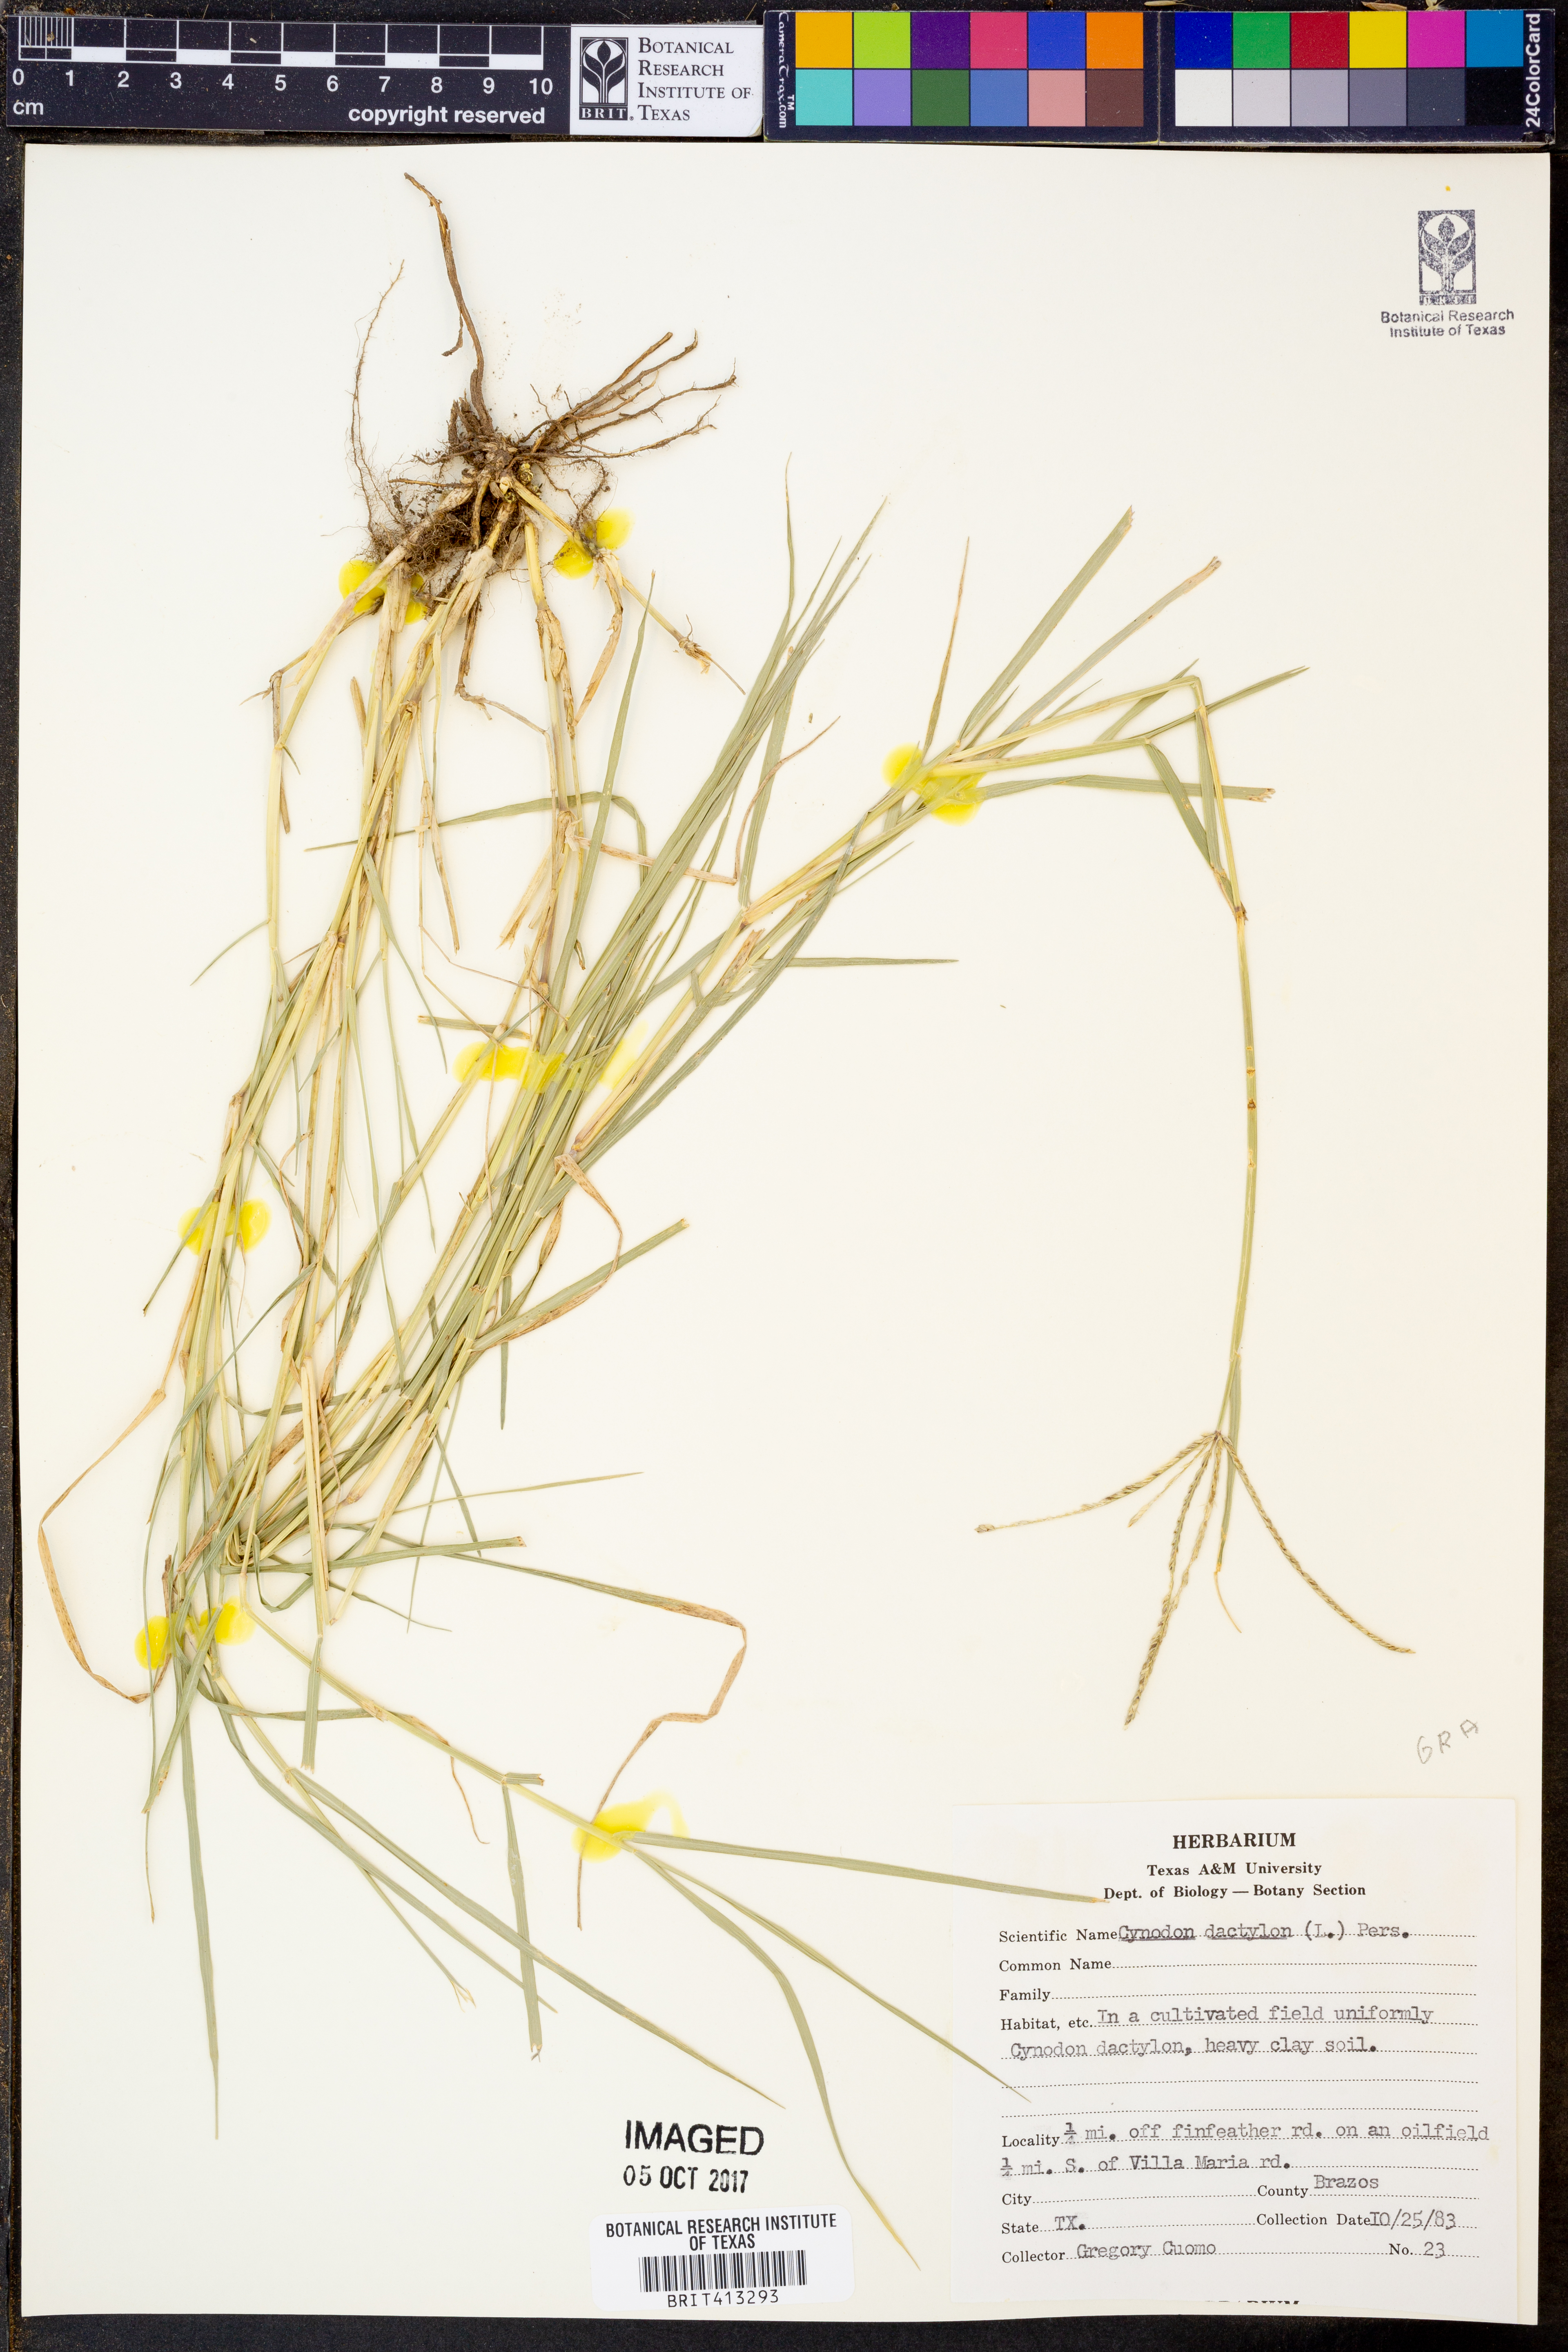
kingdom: Plantae
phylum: Tracheophyta
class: Liliopsida
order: Poales
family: Poaceae
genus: Cynodon
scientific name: Cynodon dactylon
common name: Bermuda grass
